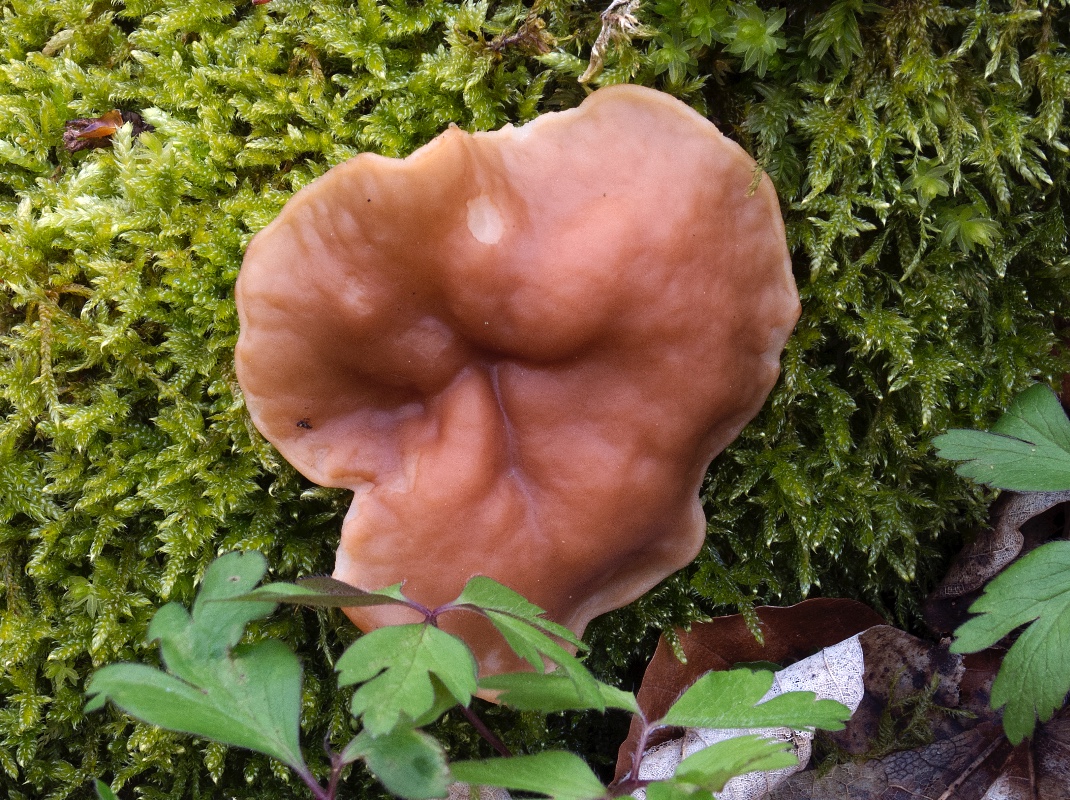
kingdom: Fungi
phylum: Ascomycota
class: Pezizomycetes
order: Pezizales
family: Discinaceae
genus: Gyromitra
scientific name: Gyromitra parma
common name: flad stenmorkel
